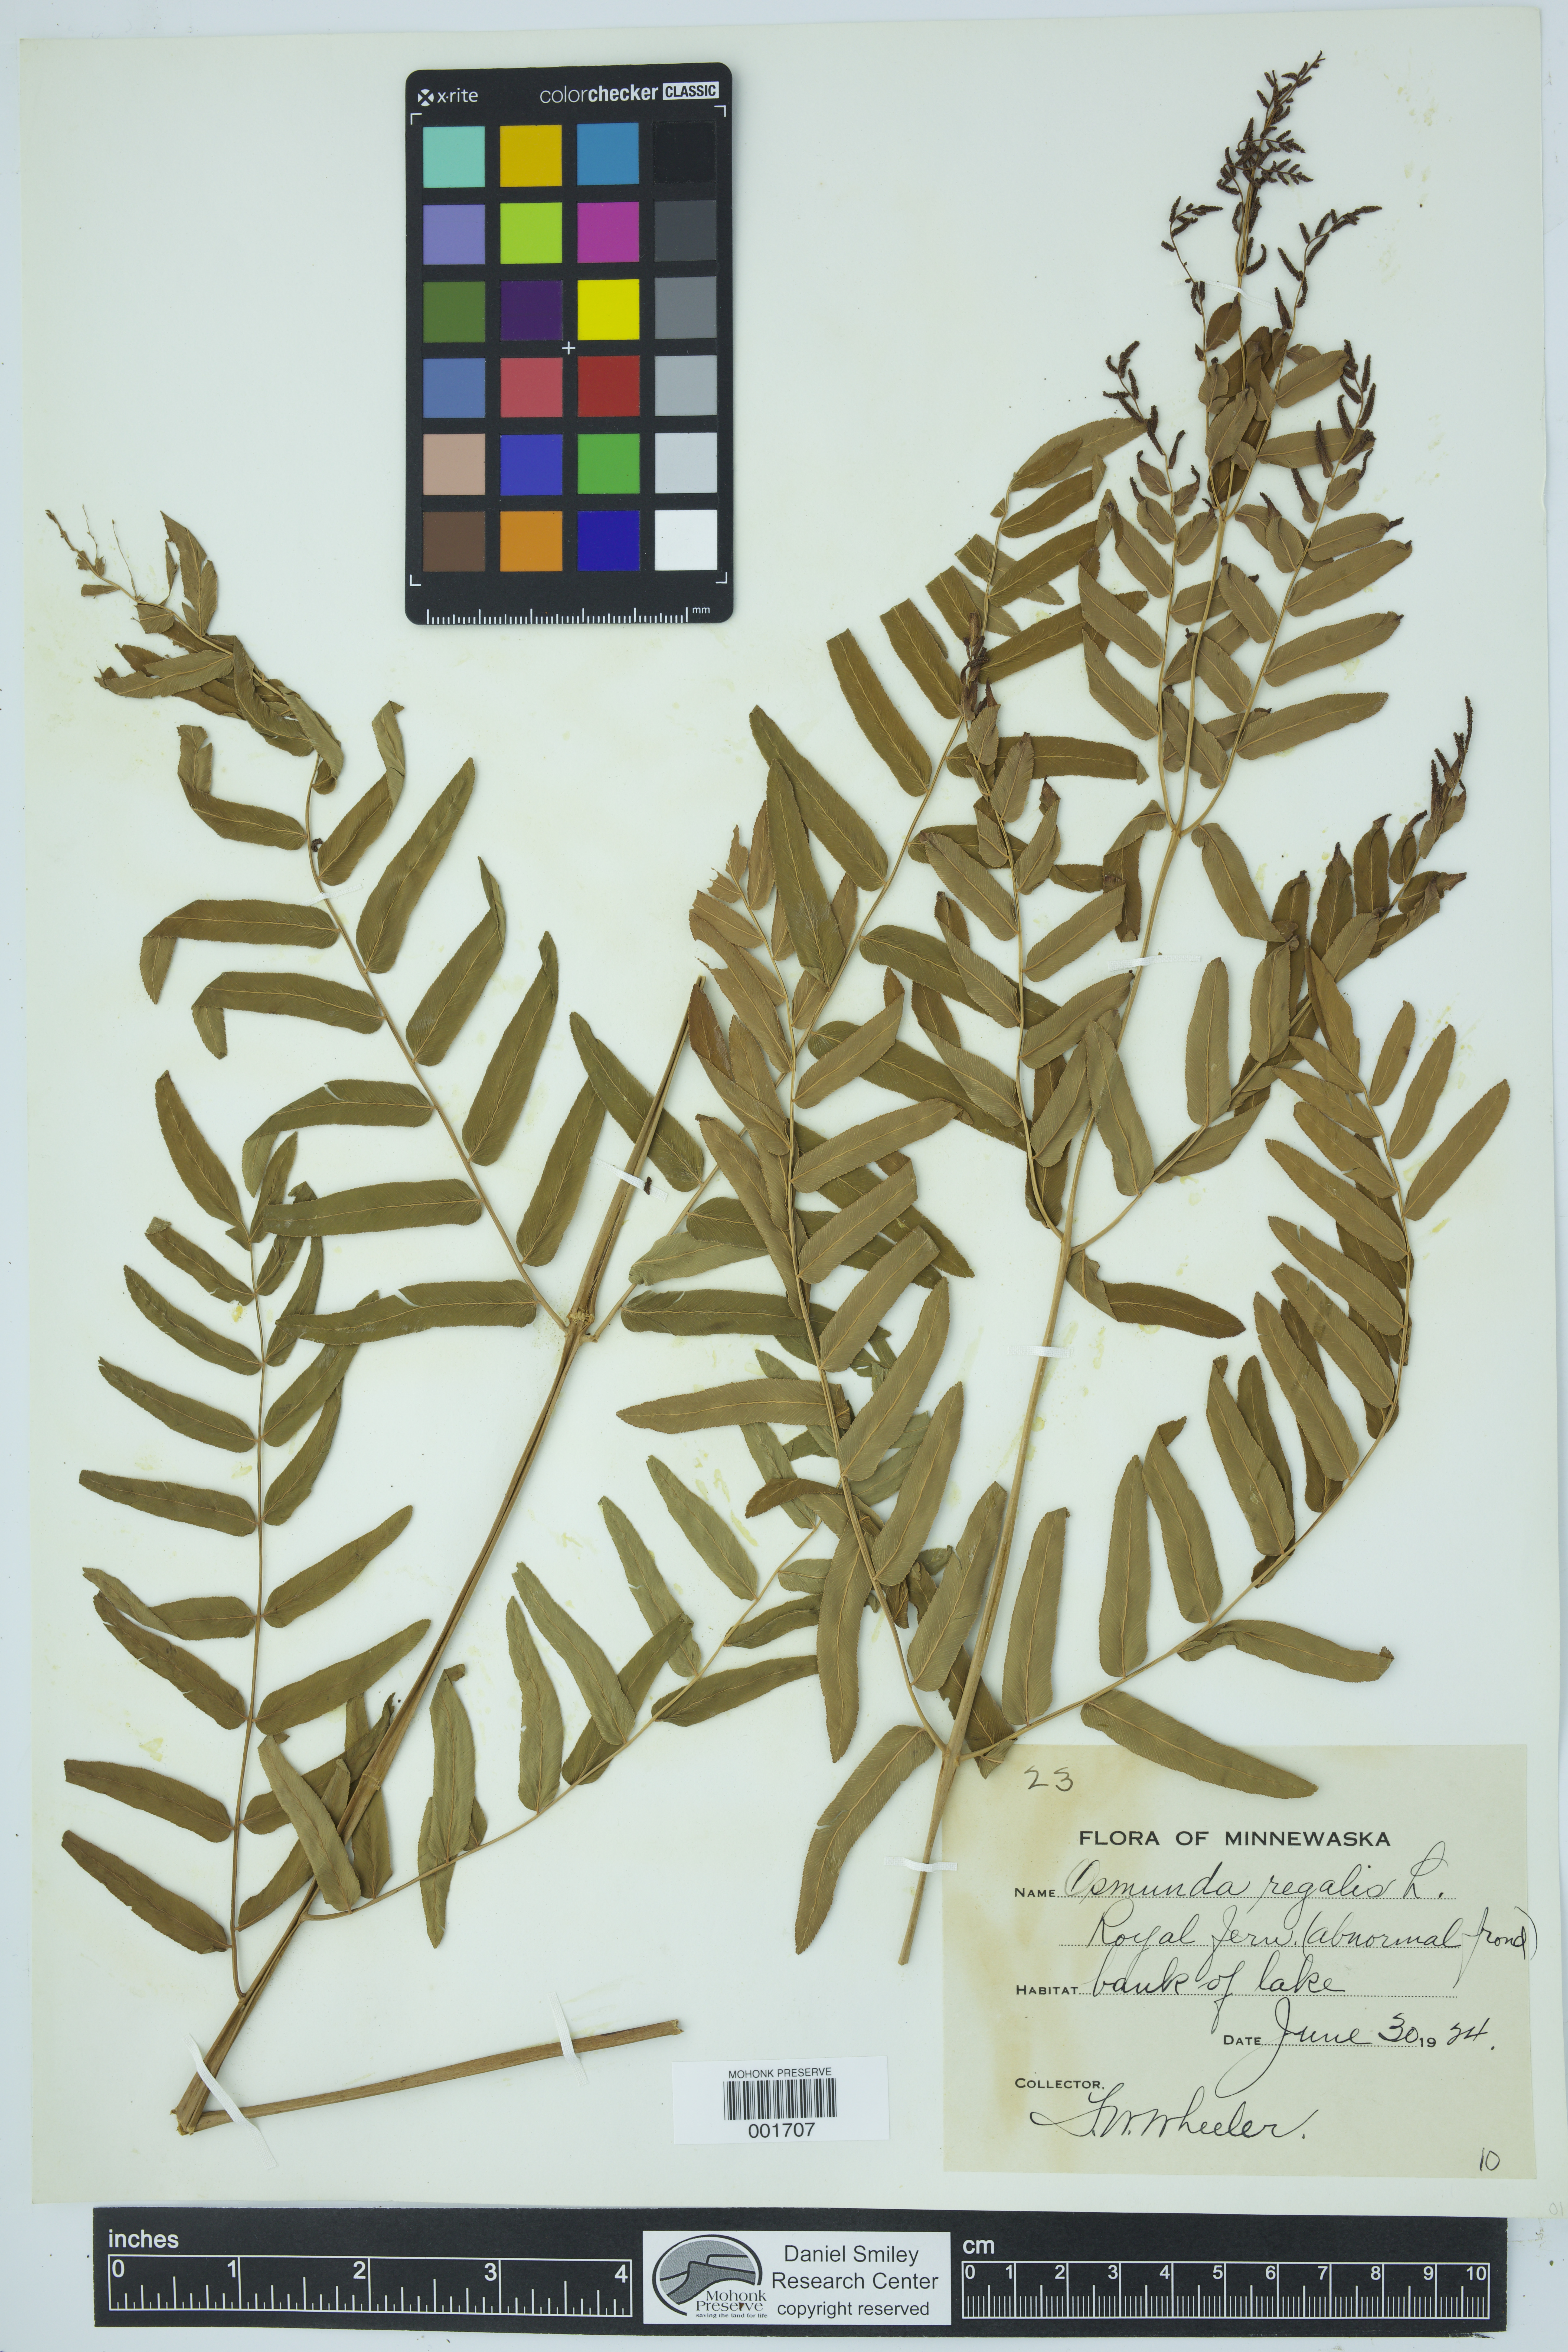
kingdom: Plantae
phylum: Tracheophyta
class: Polypodiopsida
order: Osmundales
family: Osmundaceae
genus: Osmunda
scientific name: Osmunda regalis
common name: Royal fern
